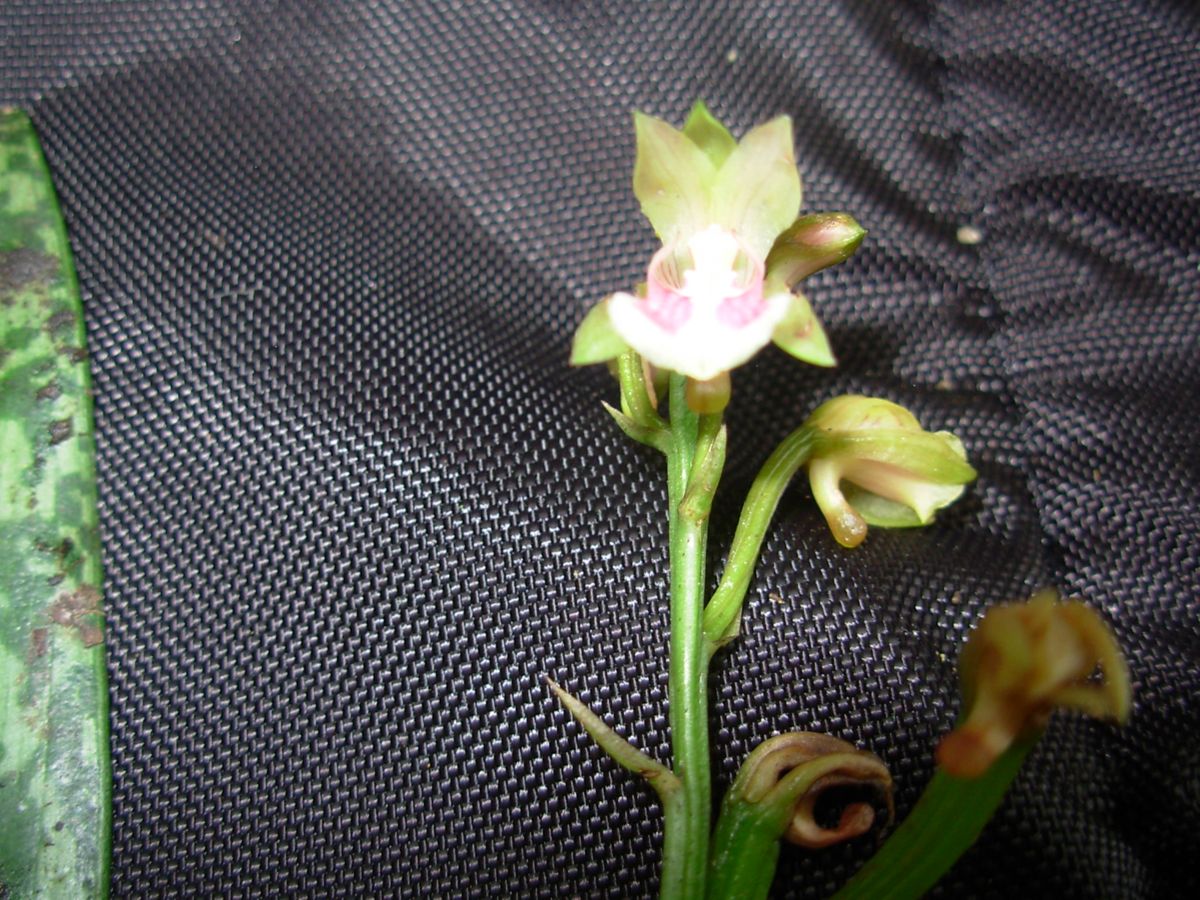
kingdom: Plantae
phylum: Tracheophyta
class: Liliopsida
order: Asparagales
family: Orchidaceae
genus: Eulophia
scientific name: Eulophia maculata
